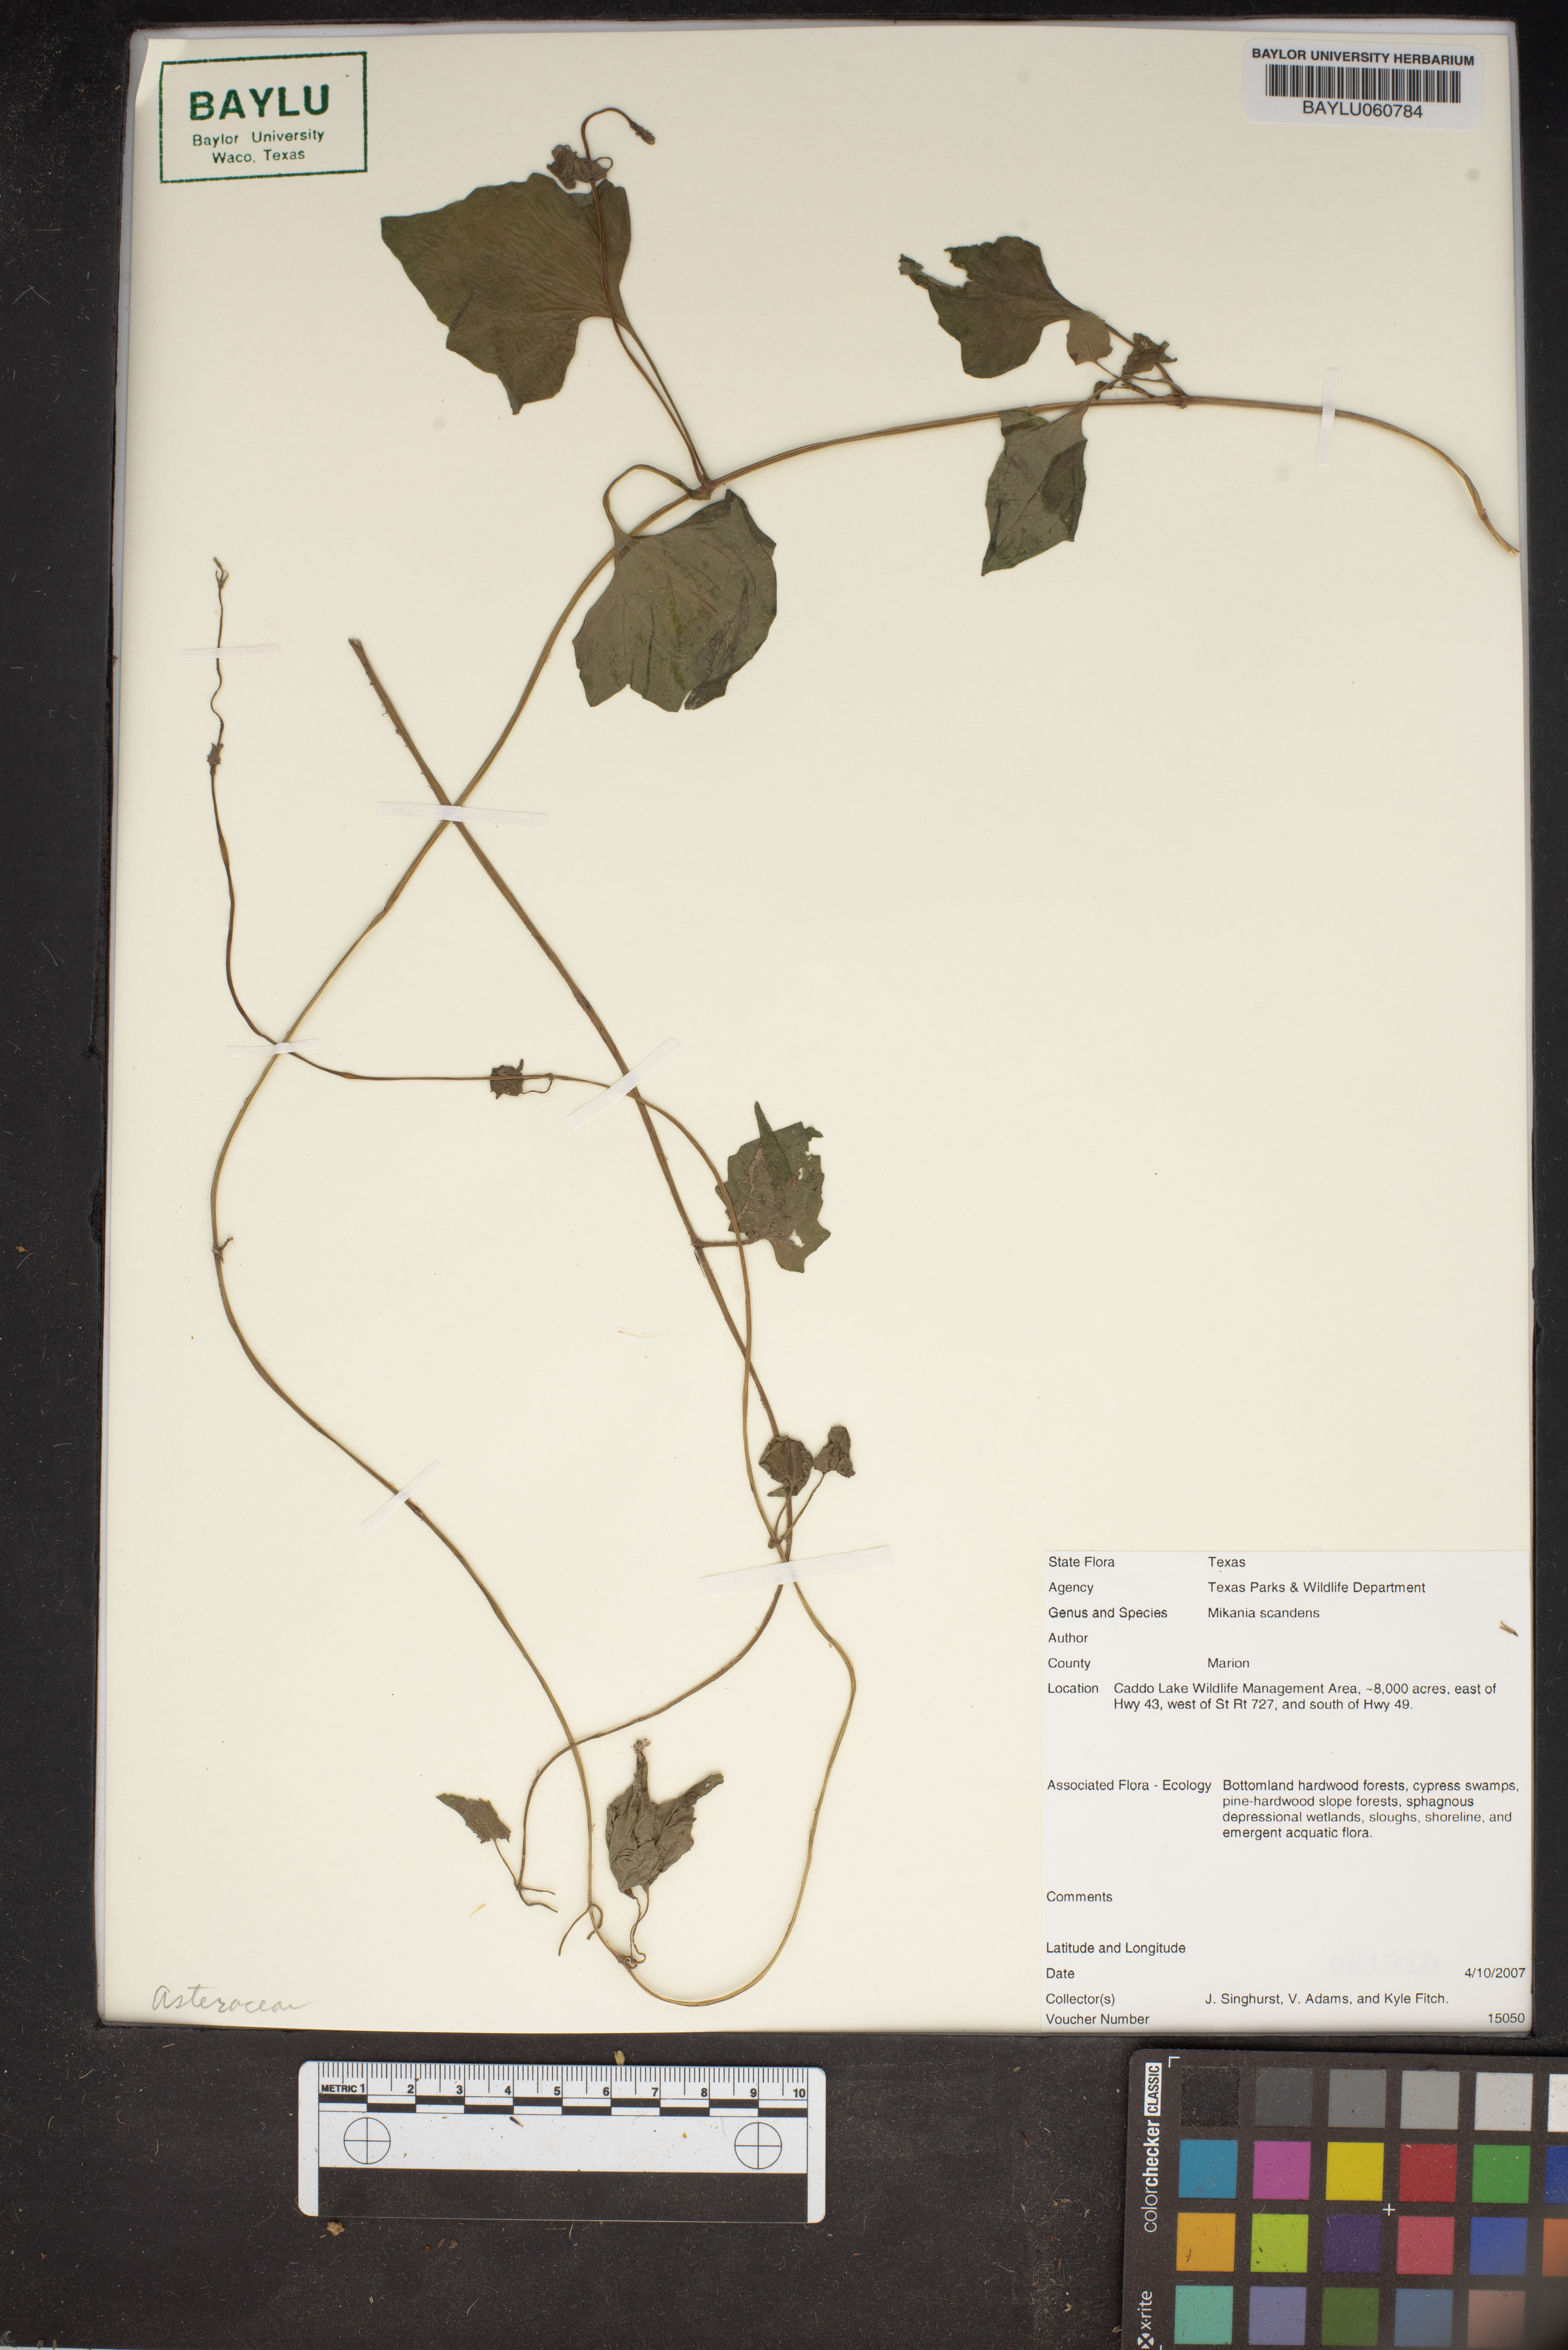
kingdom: Plantae
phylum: Tracheophyta
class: Magnoliopsida
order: Asterales
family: Asteraceae
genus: Mikania
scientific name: Mikania scandens
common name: Climbing hempvine
